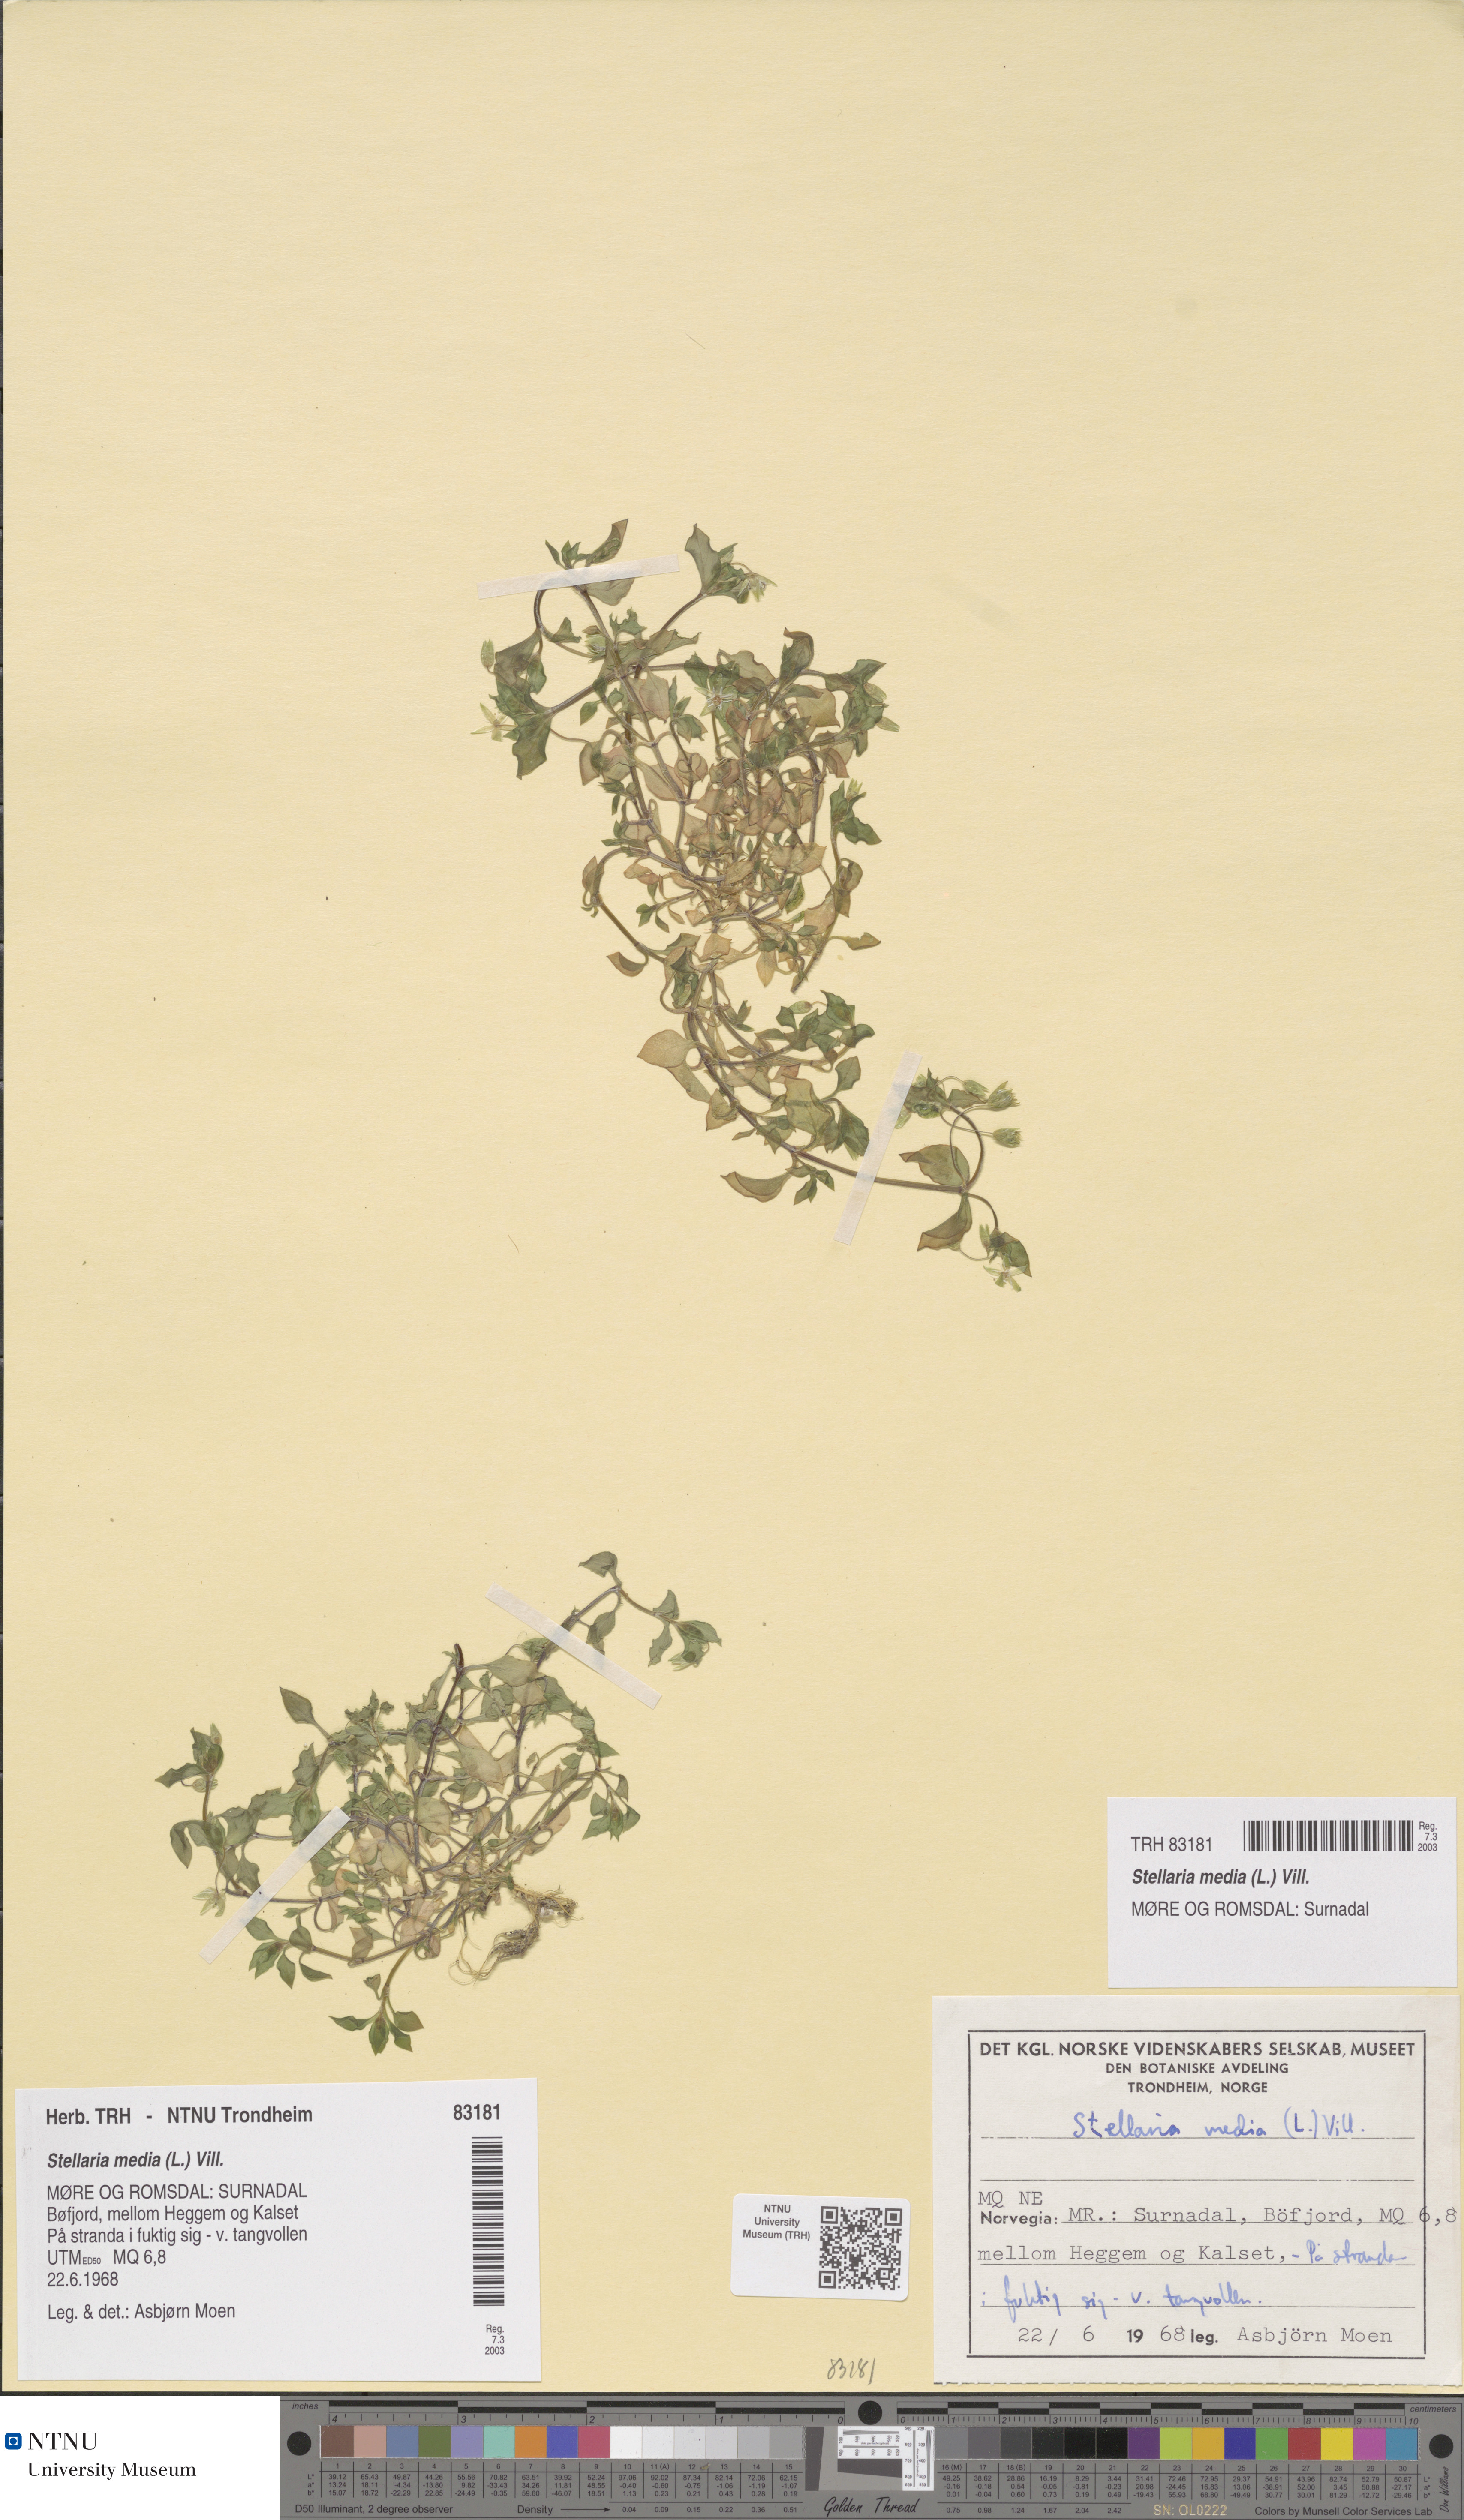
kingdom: Plantae
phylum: Tracheophyta
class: Magnoliopsida
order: Caryophyllales
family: Caryophyllaceae
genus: Stellaria
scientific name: Stellaria media
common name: Common chickweed
